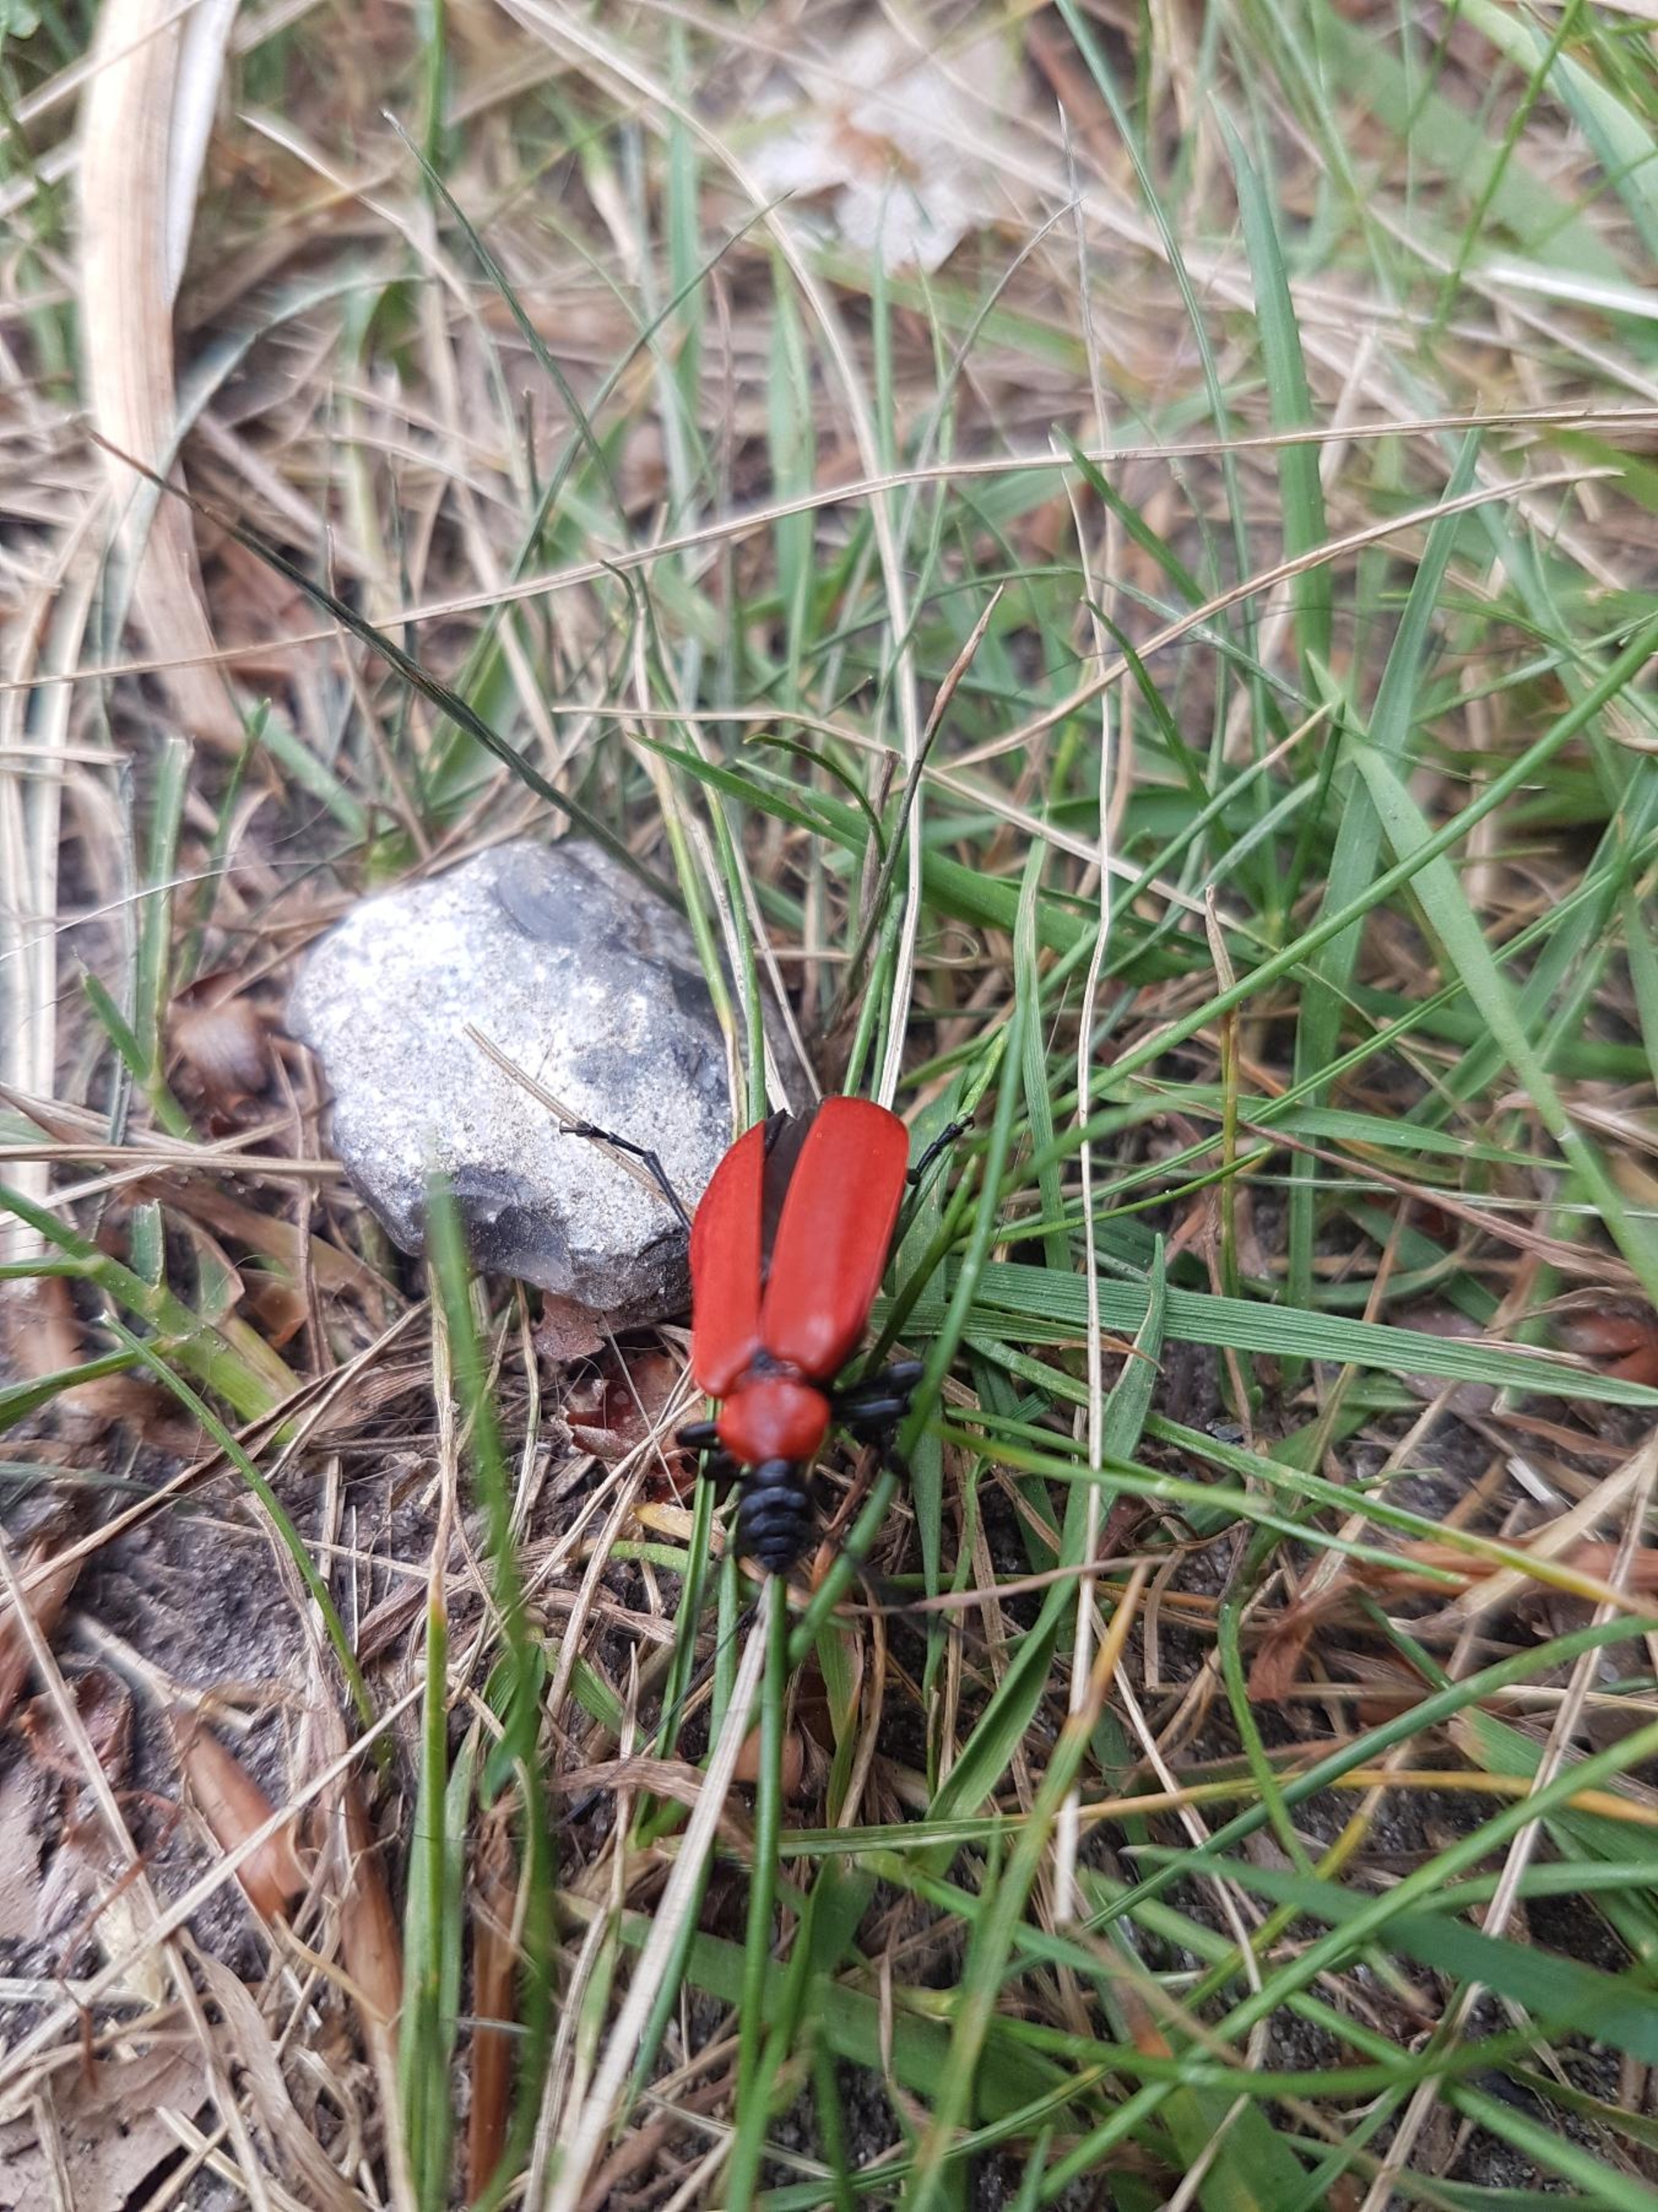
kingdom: Animalia
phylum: Arthropoda
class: Insecta
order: Coleoptera
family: Pyrochroidae
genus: Pyrochroa
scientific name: Pyrochroa coccinea
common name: Sorthovedet kardinalbille
